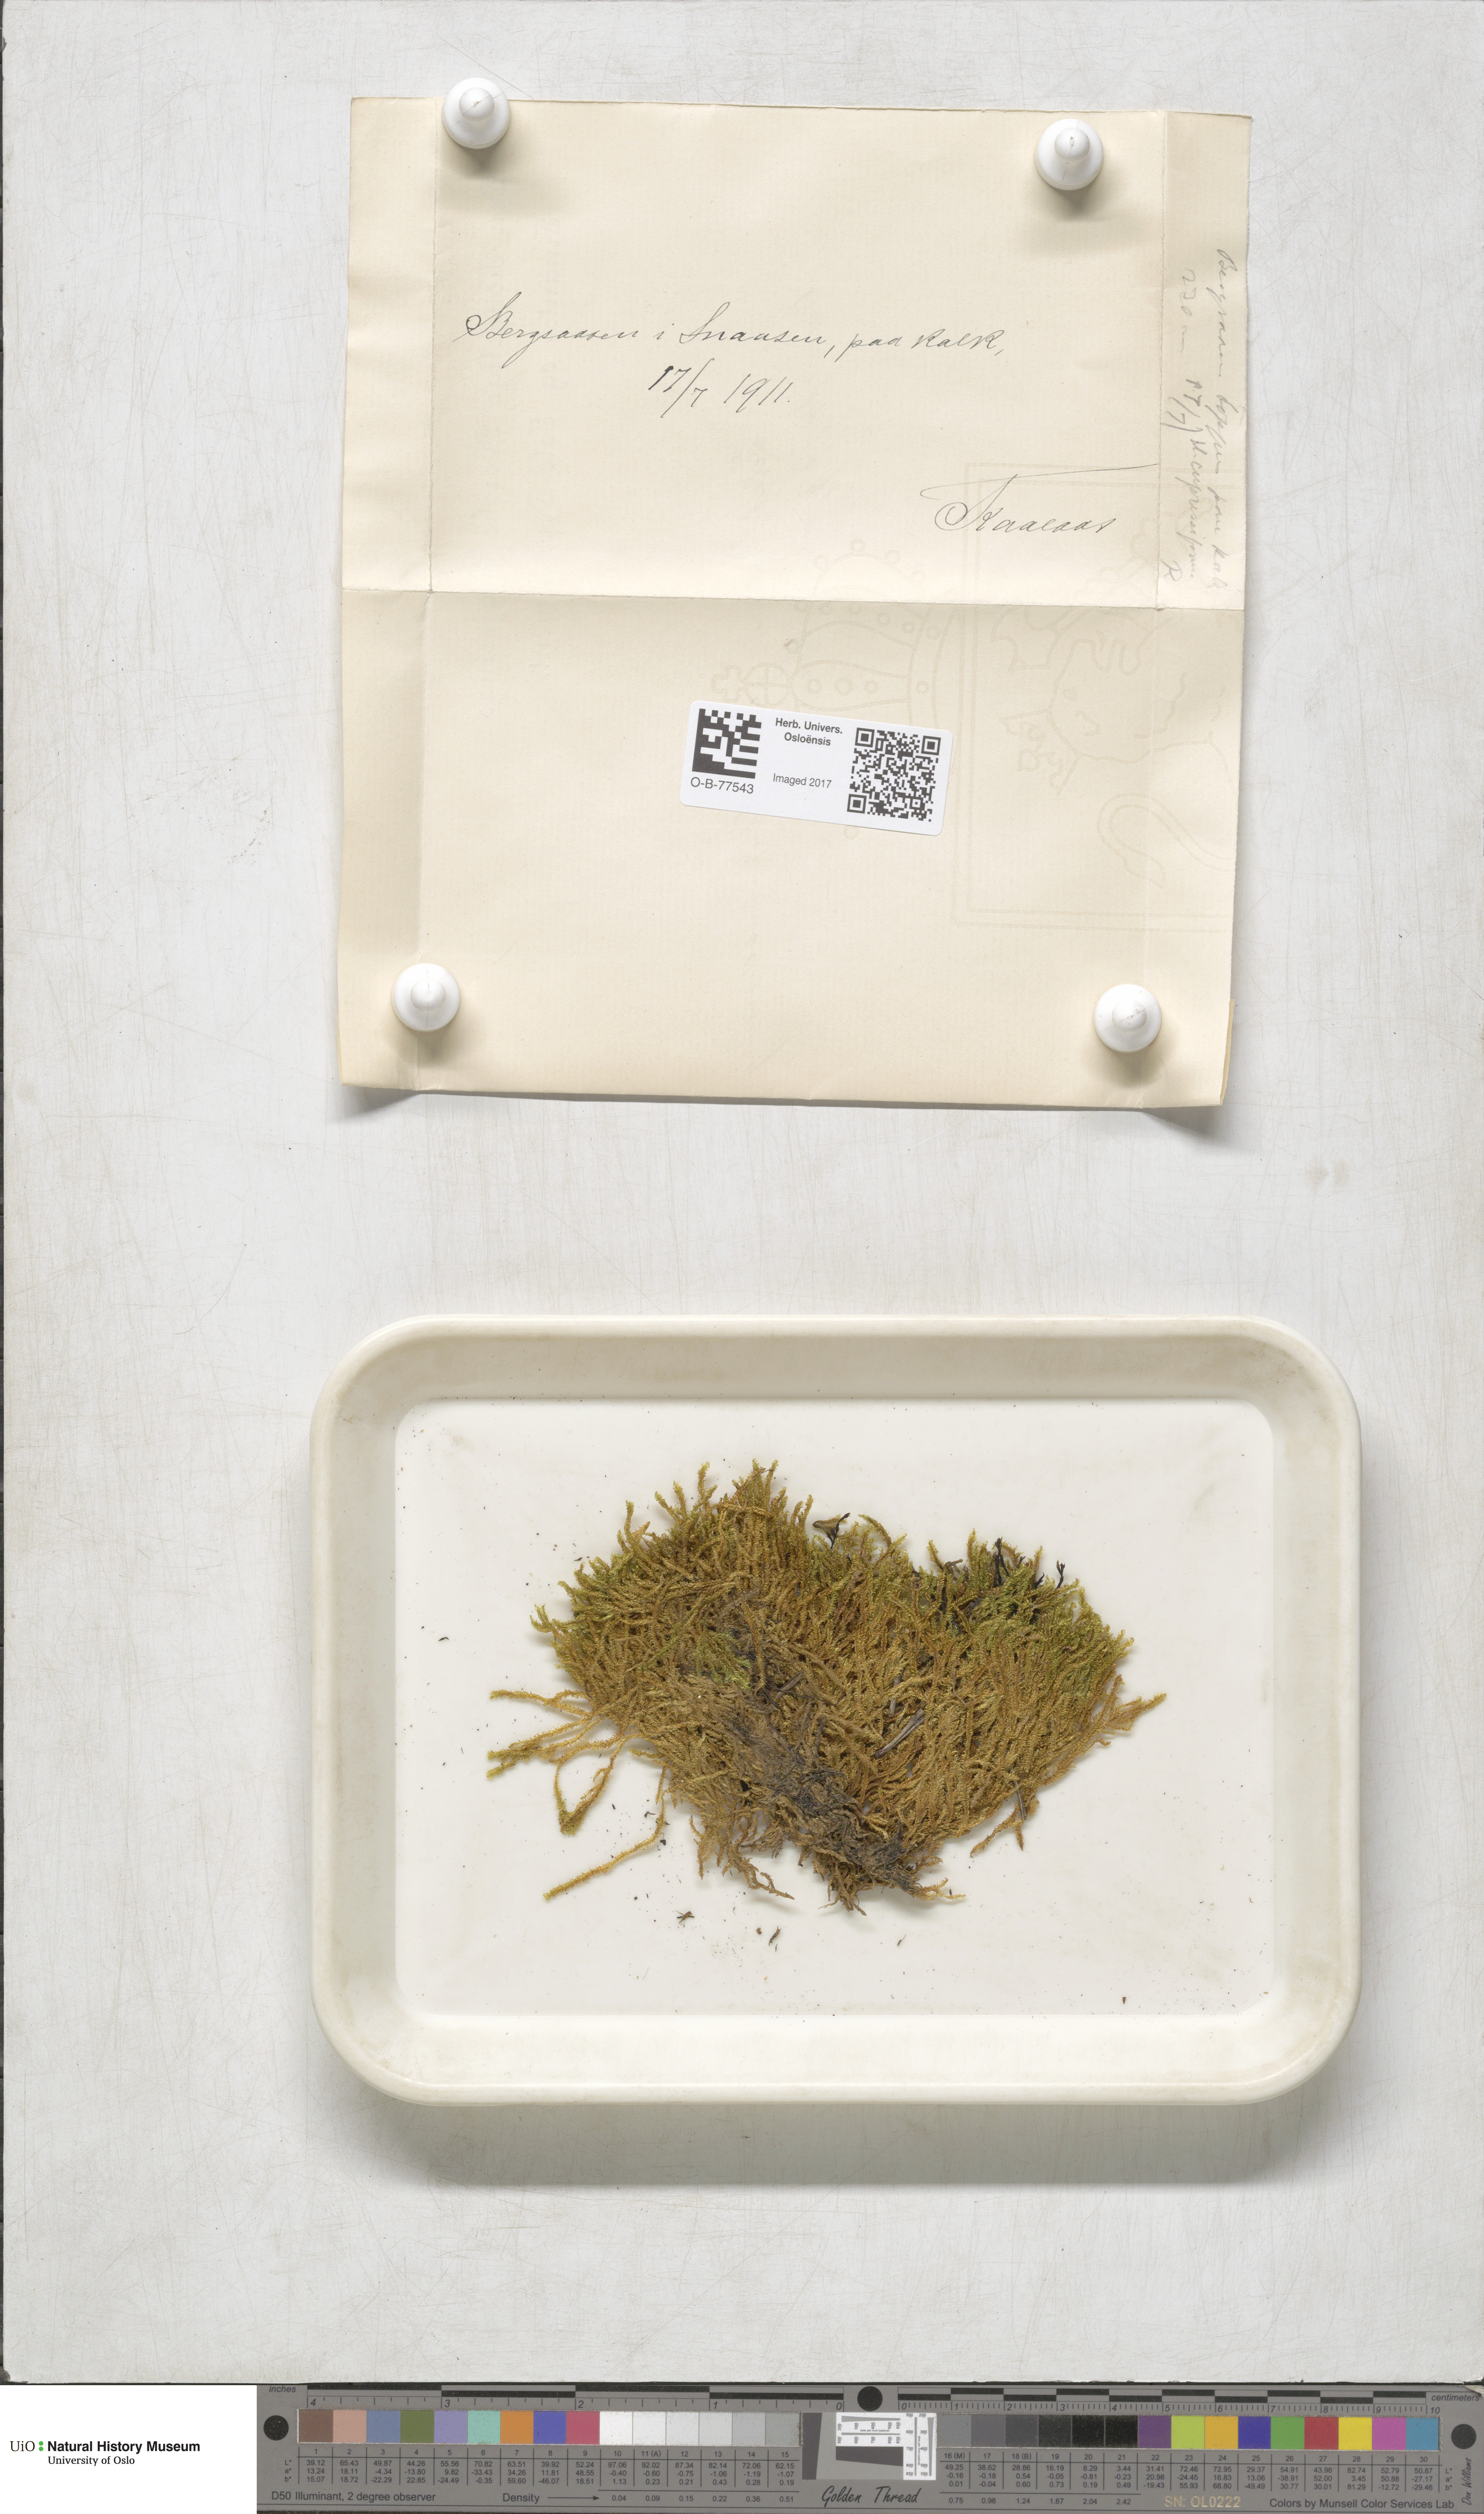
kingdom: Plantae
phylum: Bryophyta
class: Bryopsida
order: Hypnales
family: Hypnaceae
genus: Hypnum
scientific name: Hypnum cupressiforme
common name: Cypress-leaved plait-moss
